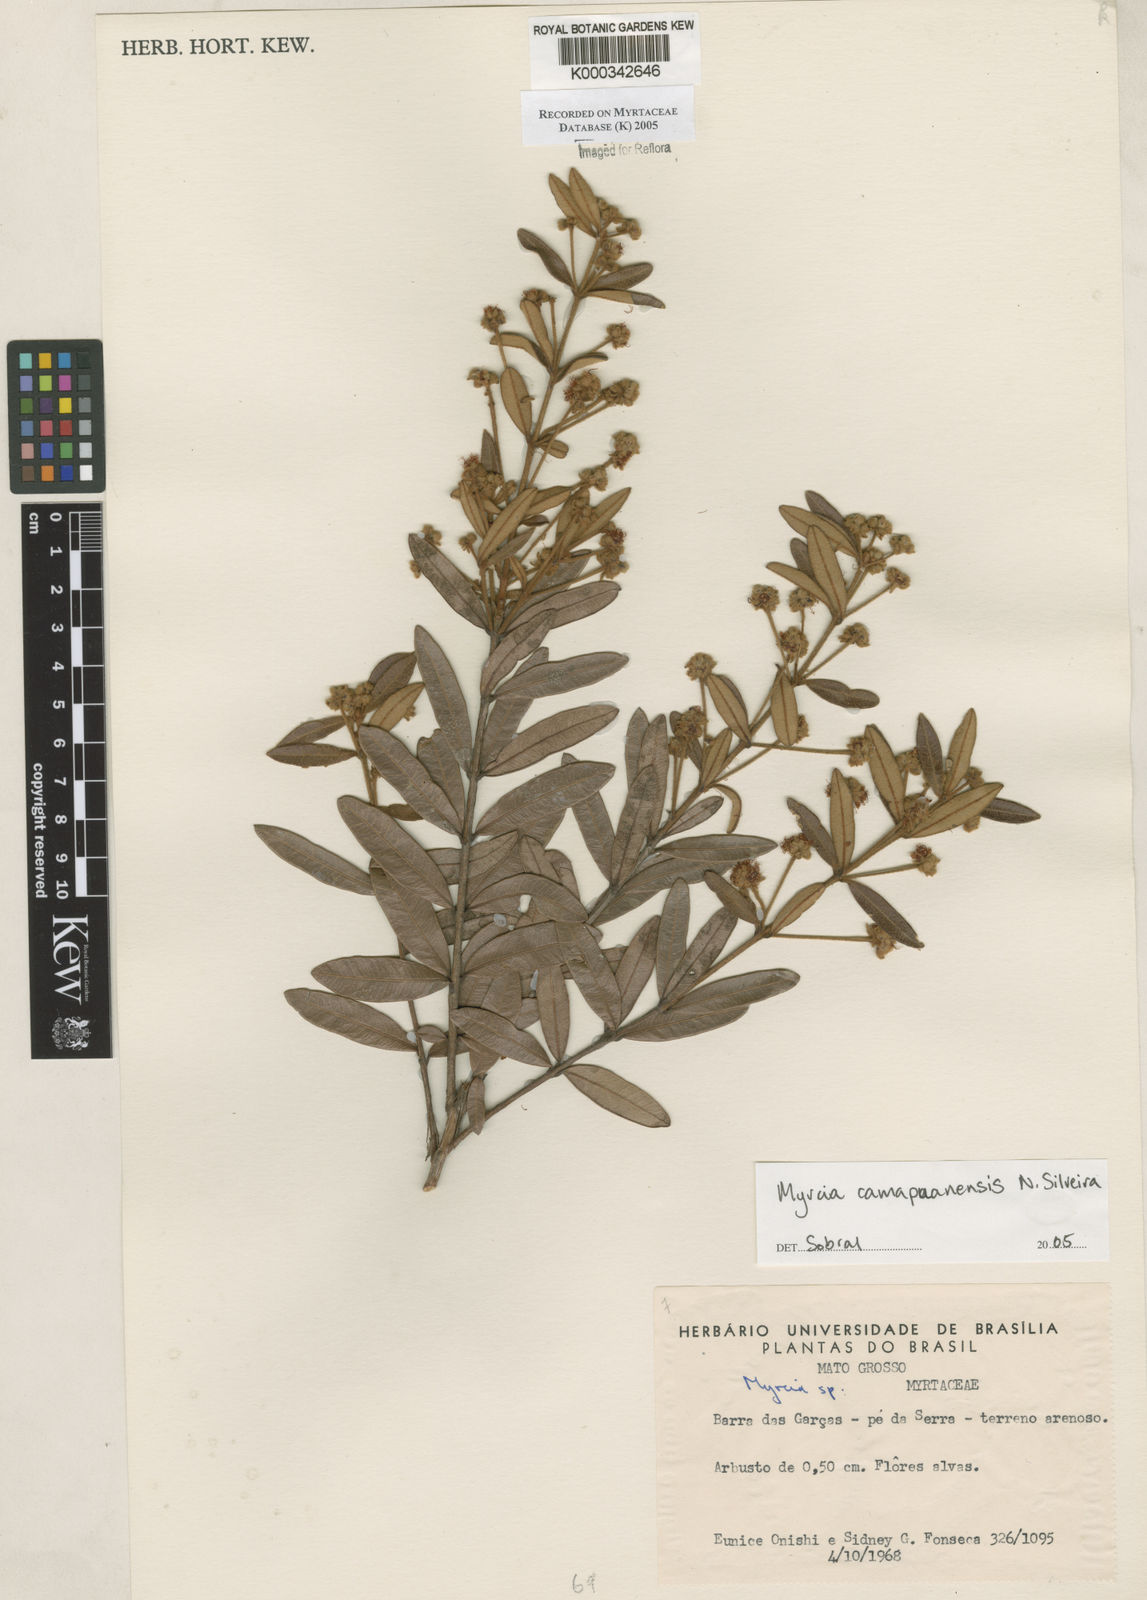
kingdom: Plantae
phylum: Tracheophyta
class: Magnoliopsida
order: Myrtales
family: Myrtaceae
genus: Myrcia
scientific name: Myrcia camapuanensis
